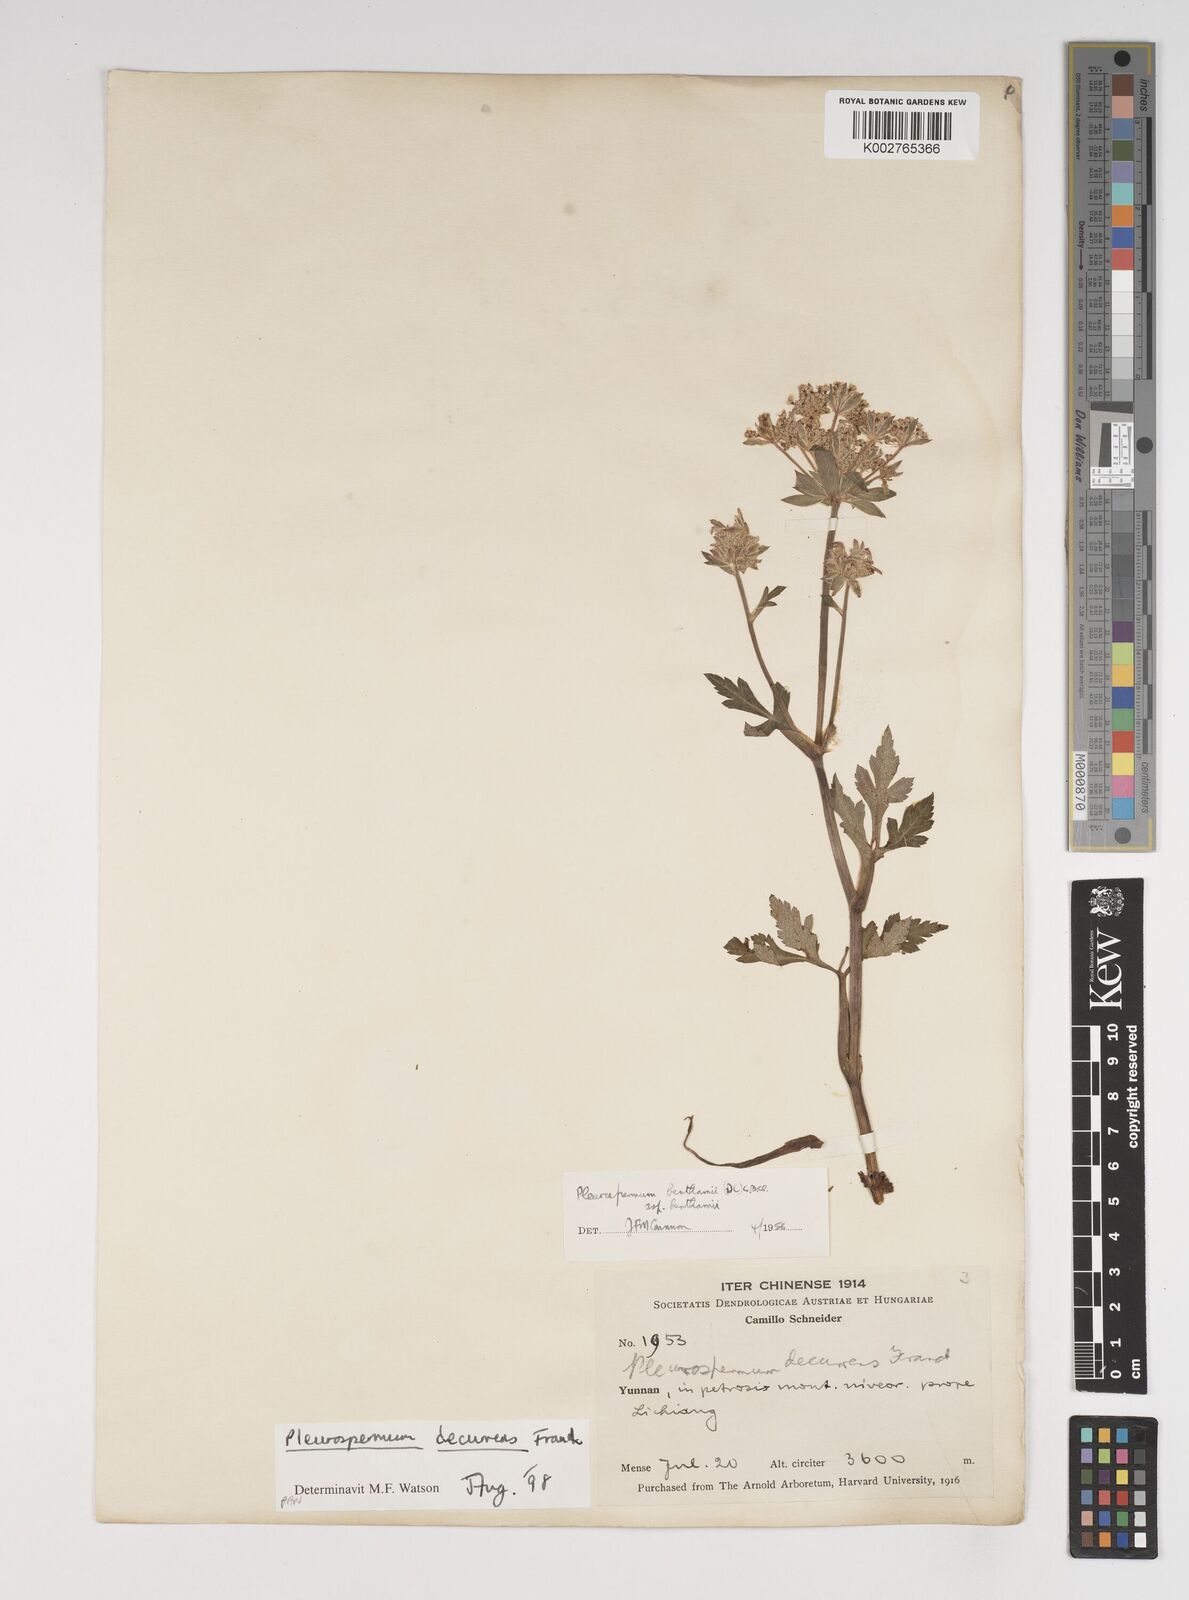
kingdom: Plantae
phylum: Tracheophyta
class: Magnoliopsida
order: Apiales
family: Apiaceae
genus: Hymenidium
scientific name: Hymenidium decurrens
